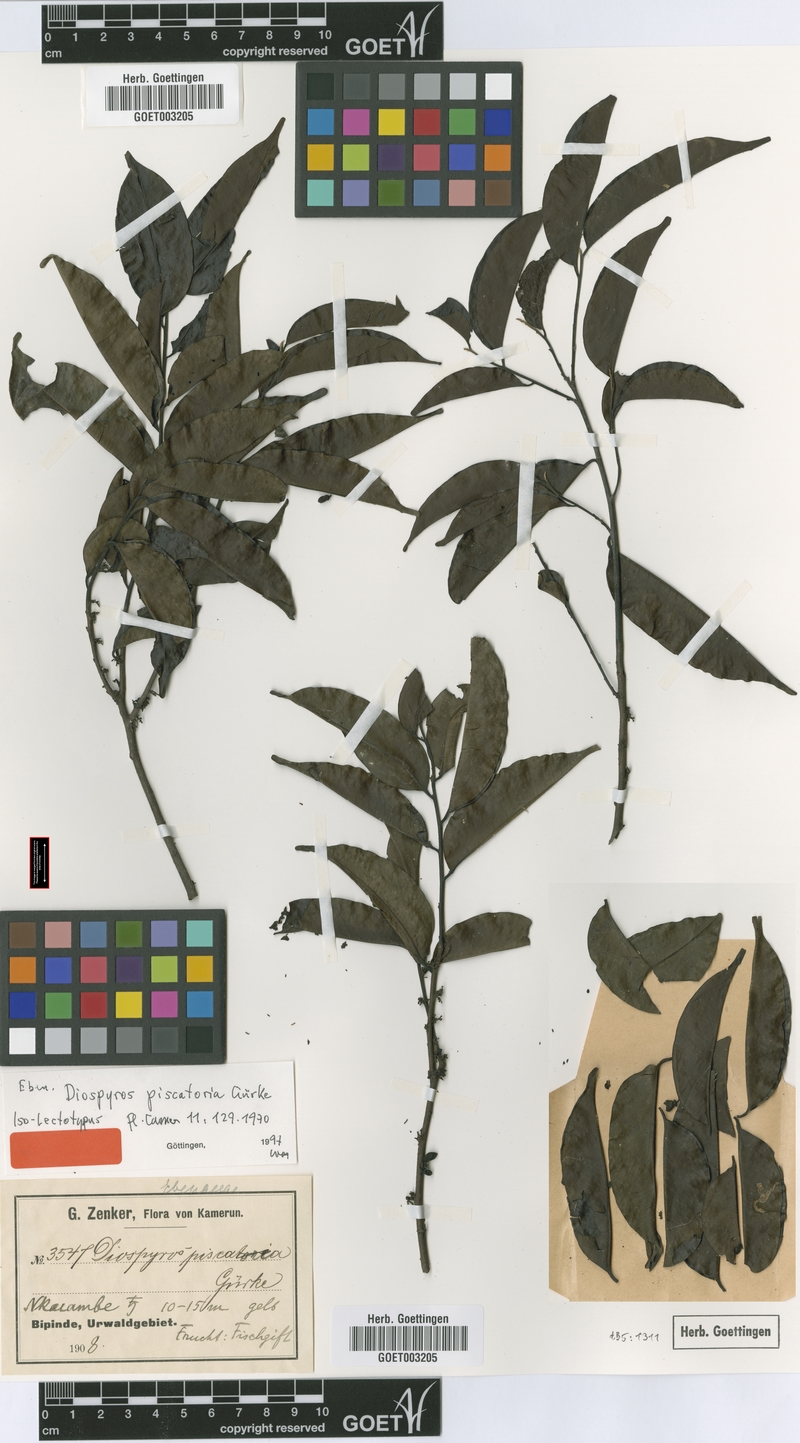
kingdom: Plantae
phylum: Tracheophyta
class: Magnoliopsida
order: Ericales
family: Ebenaceae
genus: Diospyros
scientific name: Diospyros piscatoria
